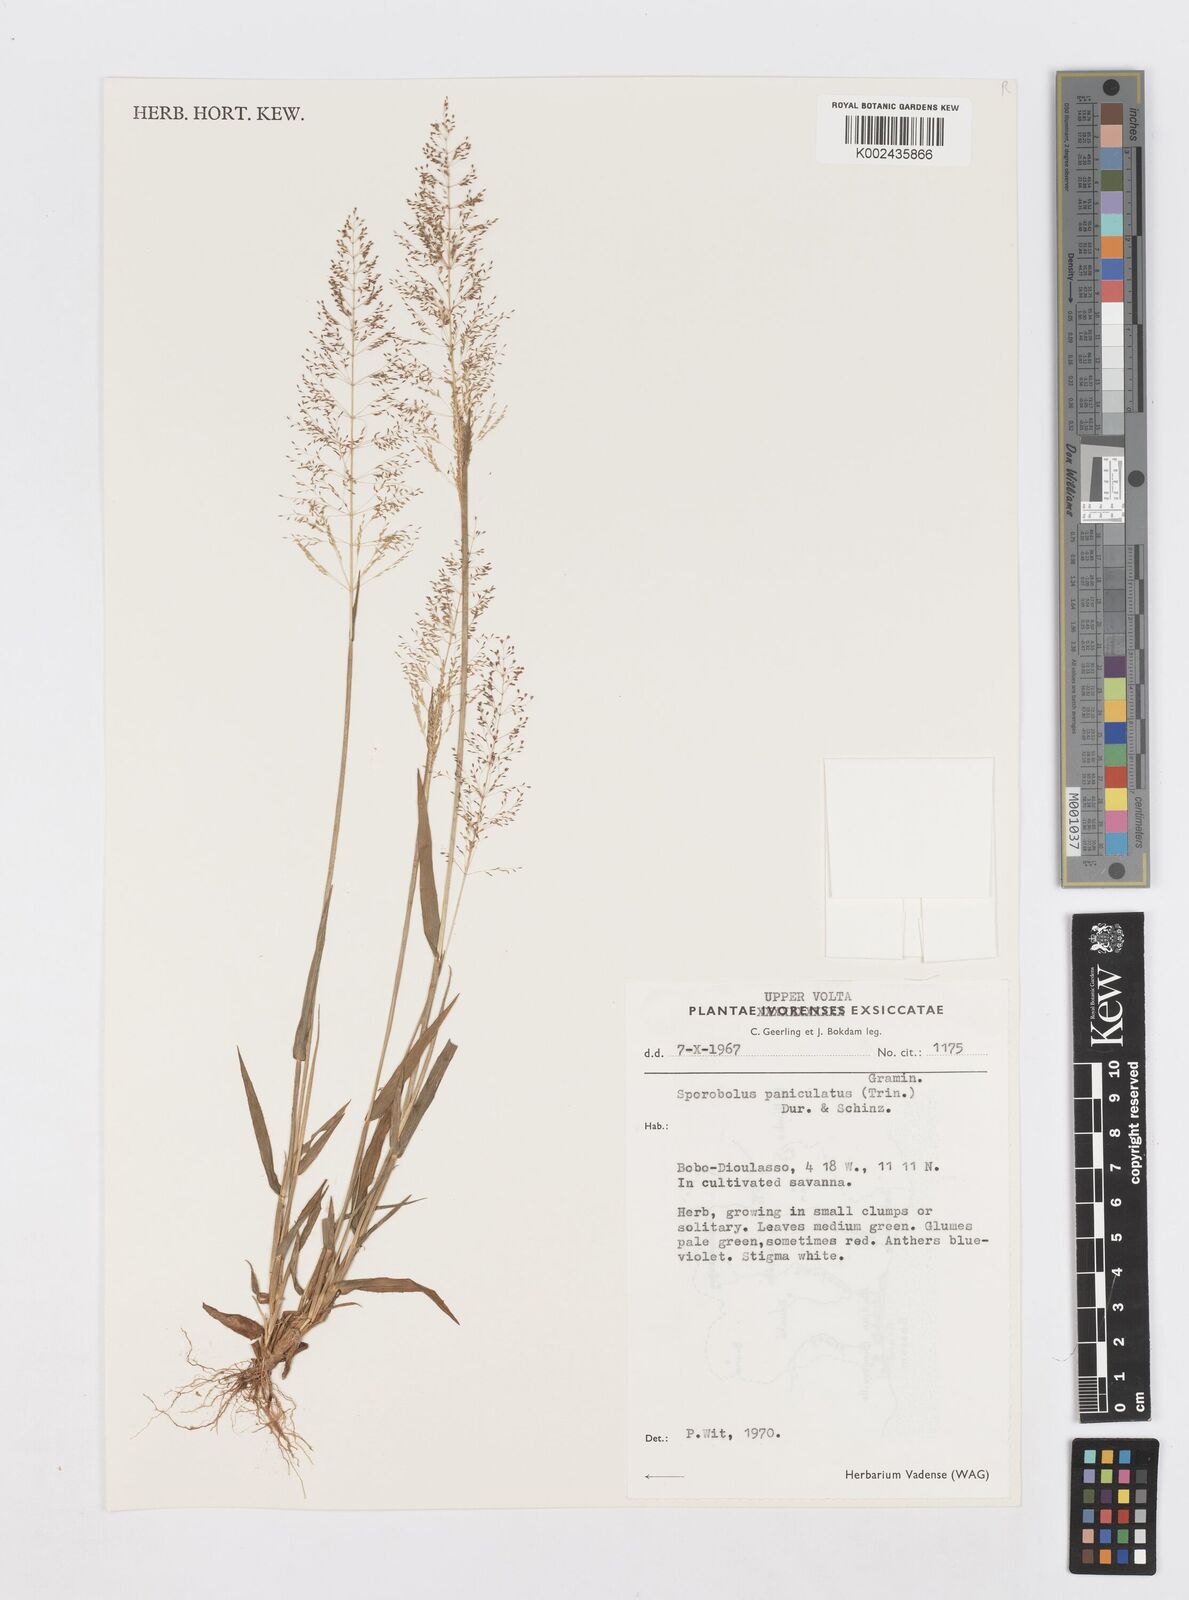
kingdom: Plantae
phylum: Tracheophyta
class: Liliopsida
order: Poales
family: Poaceae
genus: Sporobolus
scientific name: Sporobolus micranthus
